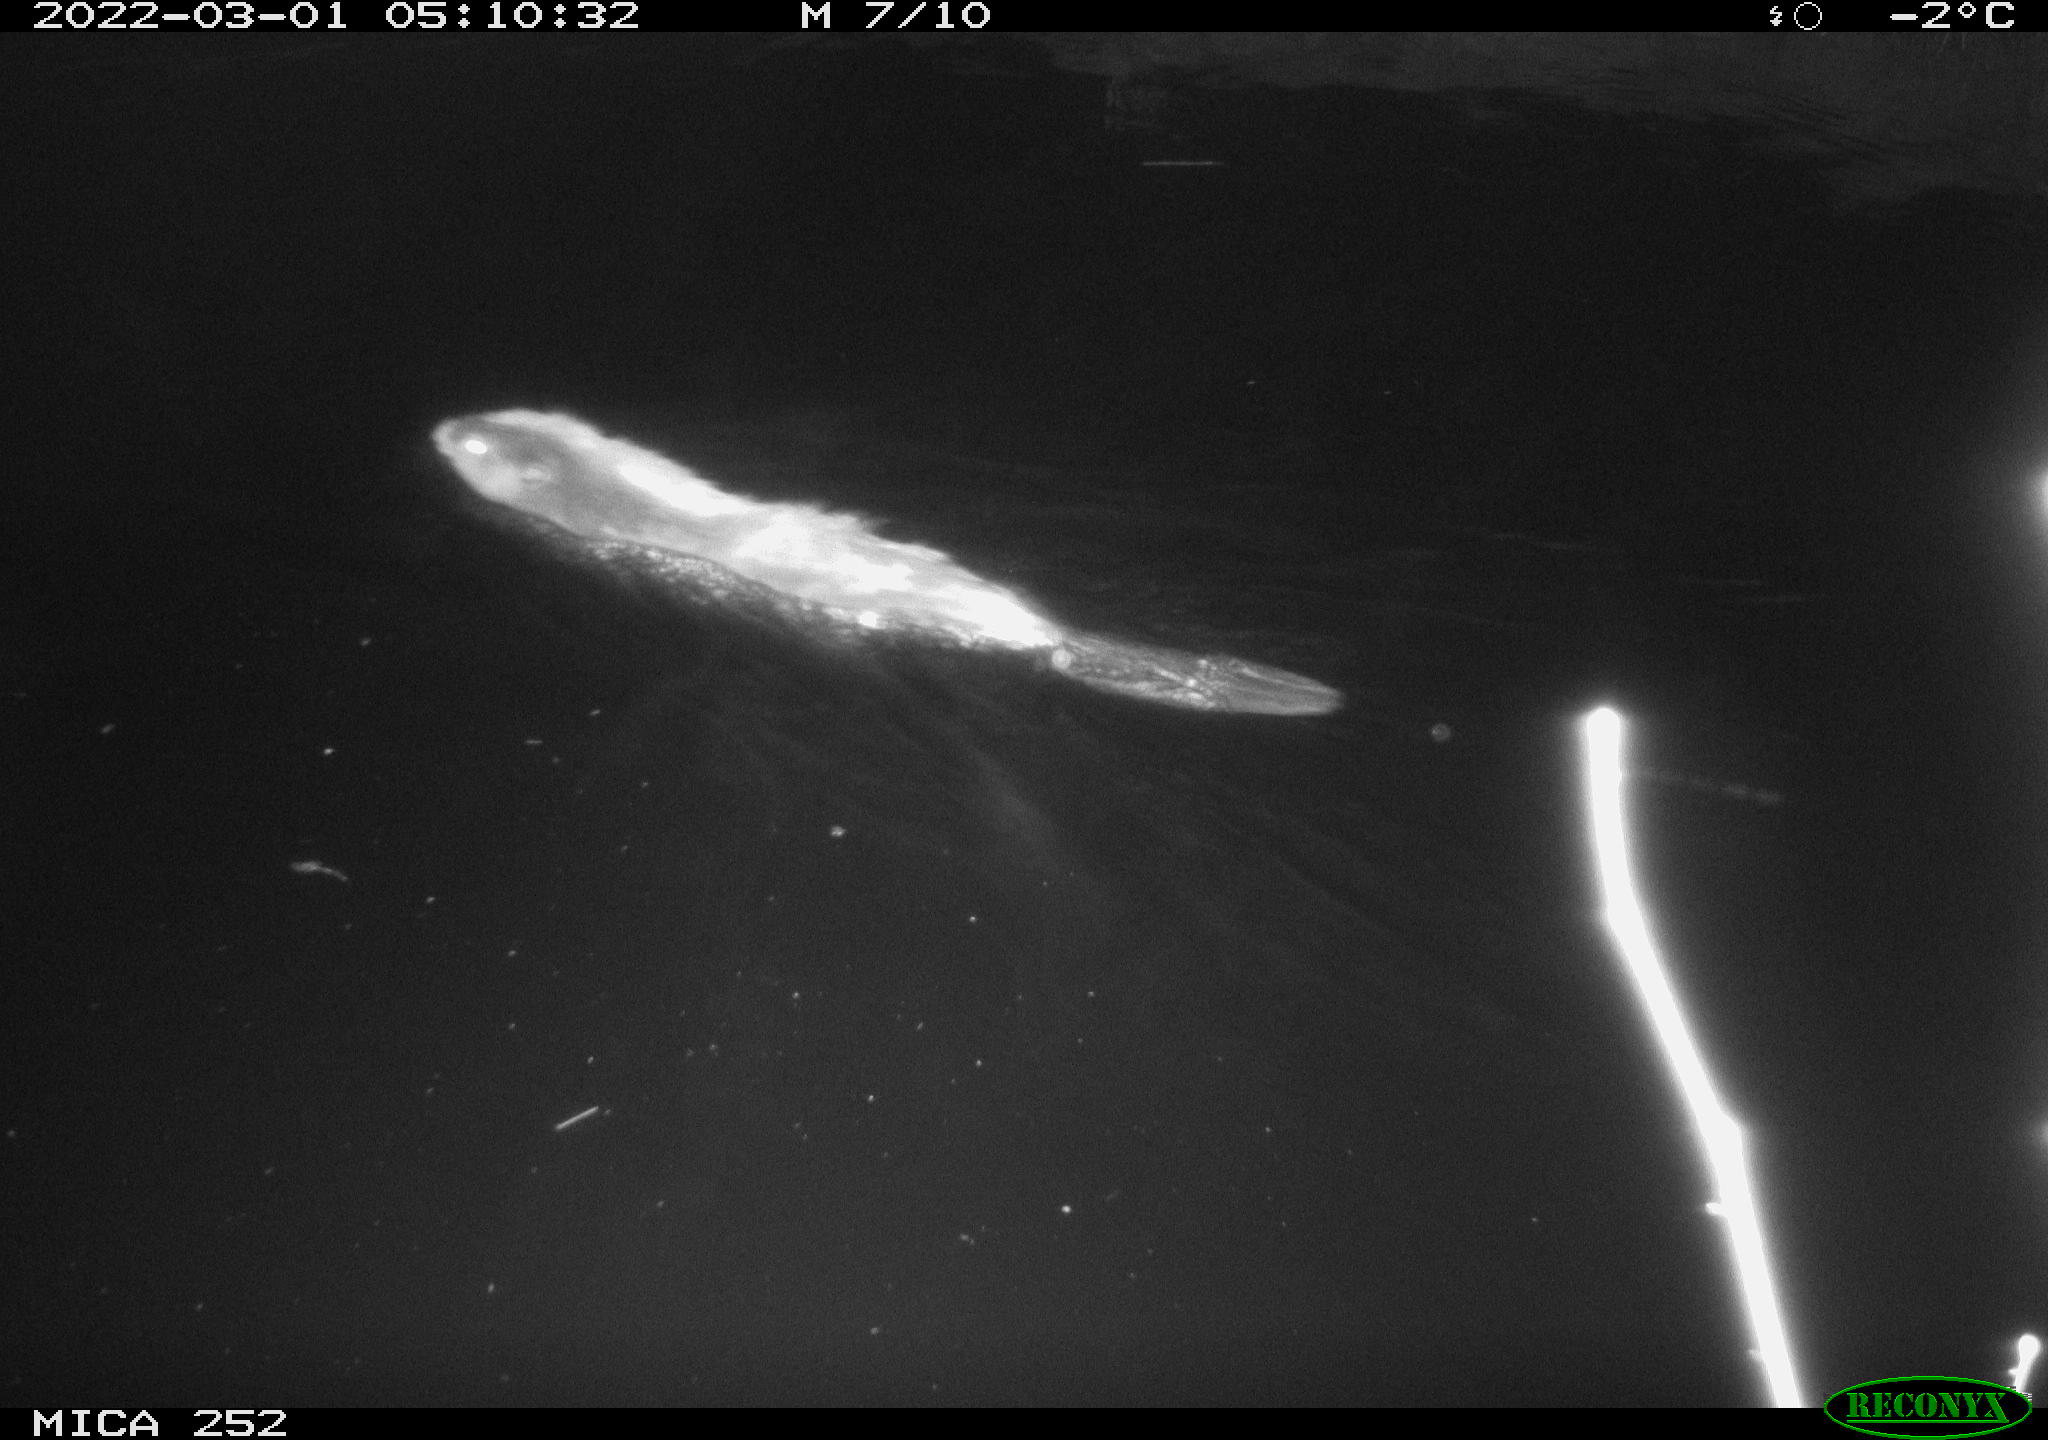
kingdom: Animalia
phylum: Chordata
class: Mammalia
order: Rodentia
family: Castoridae
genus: Castor
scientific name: Castor fiber
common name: Eurasian beaver
